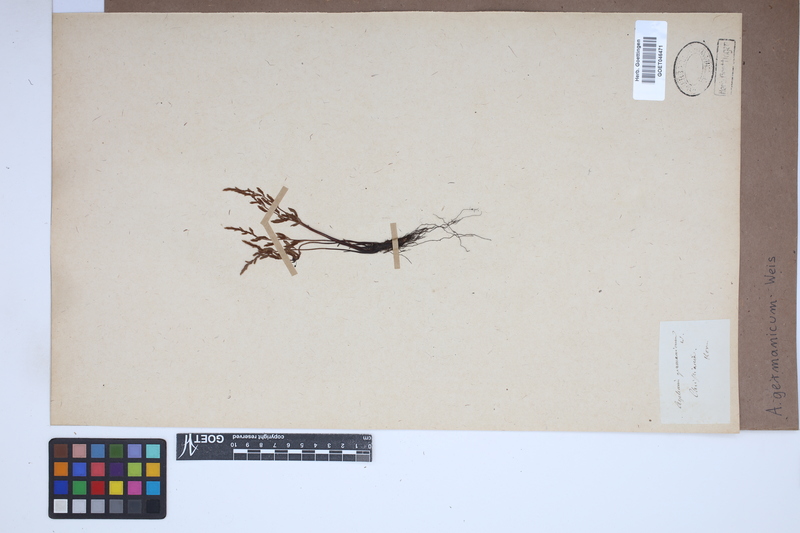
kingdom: Plantae
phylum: Tracheophyta
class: Polypodiopsida
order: Polypodiales
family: Aspleniaceae
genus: Asplenium
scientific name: Asplenium
